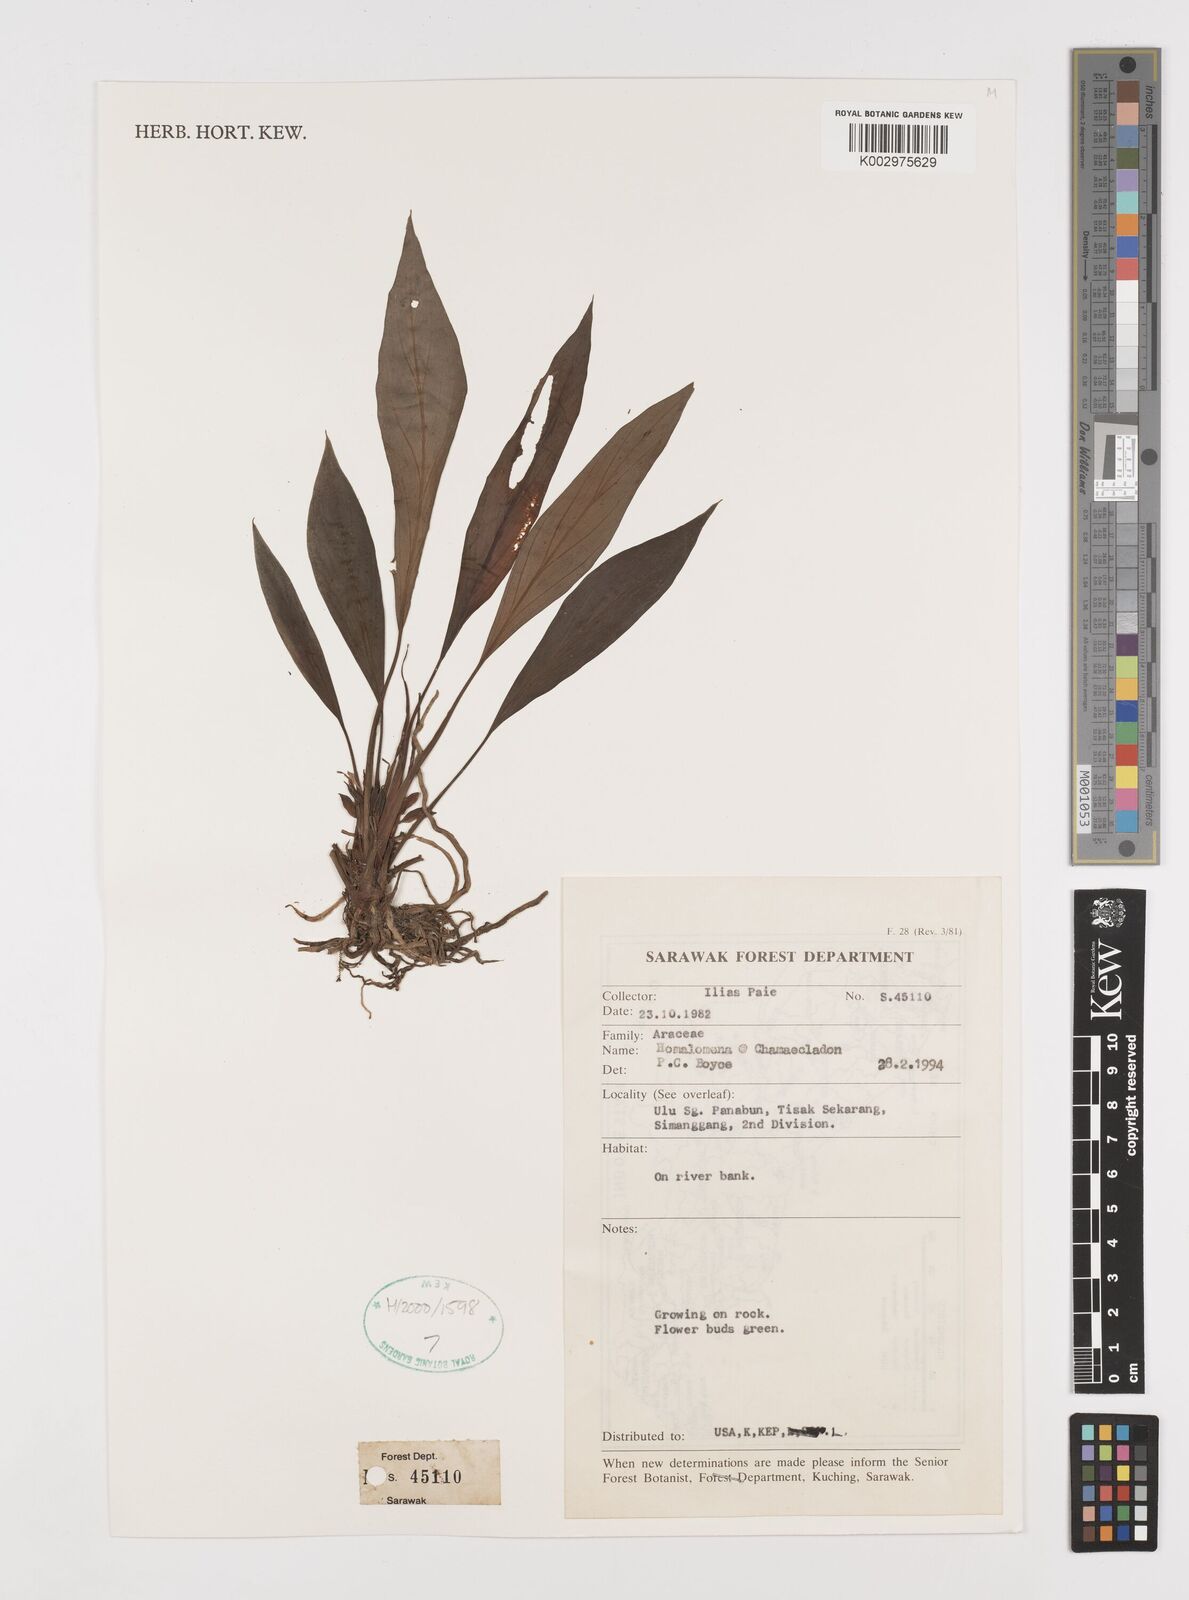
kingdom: Plantae
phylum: Tracheophyta
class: Liliopsida
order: Alismatales
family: Araceae
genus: Homalomena
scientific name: Homalomena
